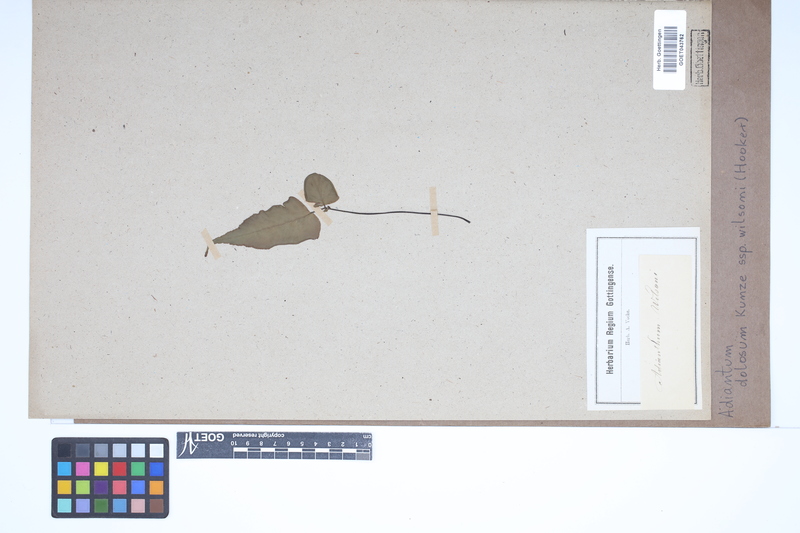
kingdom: Plantae
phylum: Tracheophyta
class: Polypodiopsida
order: Polypodiales
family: Pteridaceae
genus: Adiantum
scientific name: Adiantum dolosum
